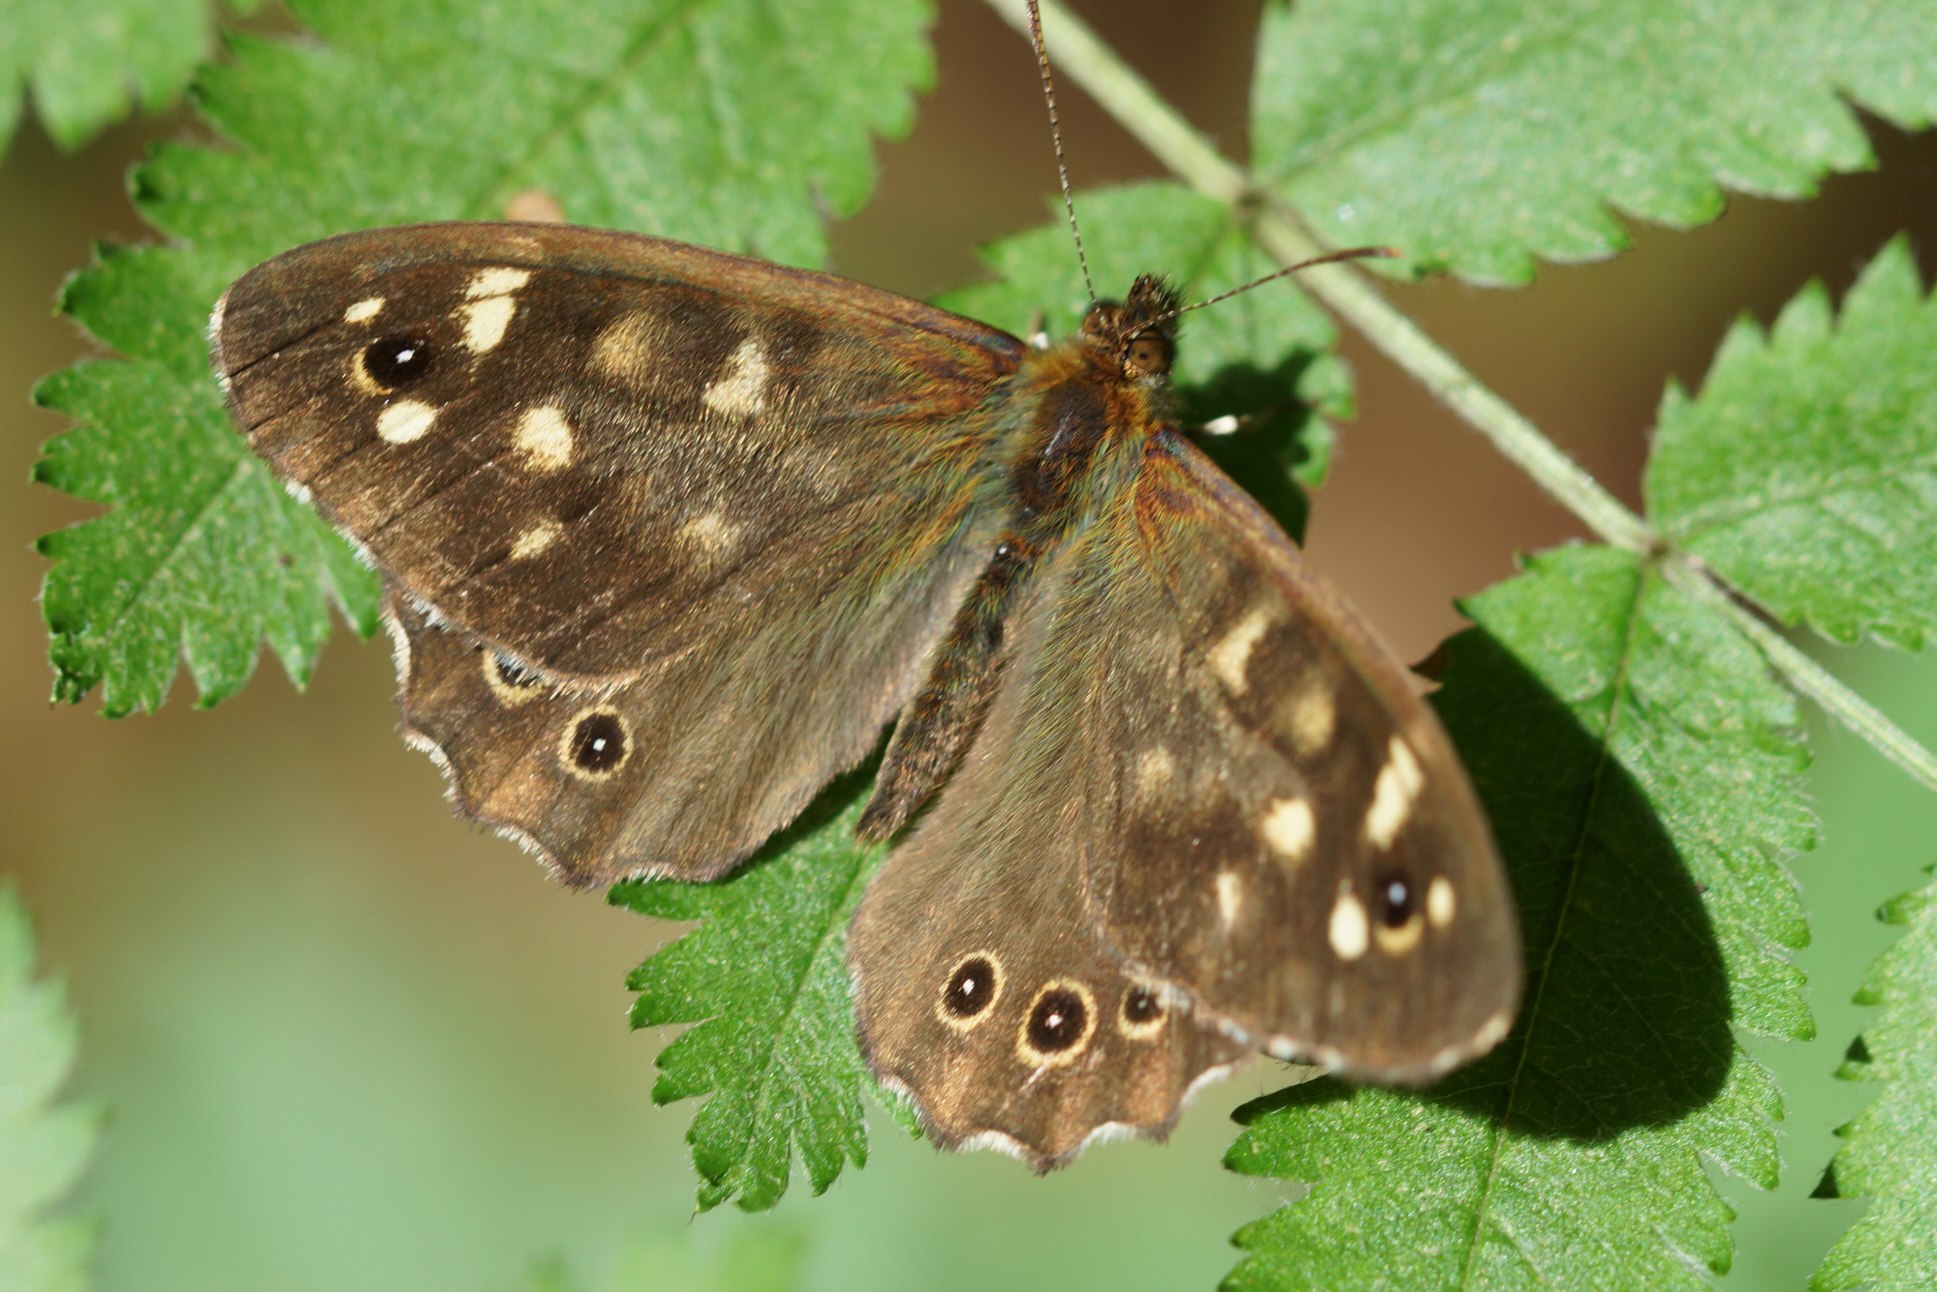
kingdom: Animalia
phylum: Arthropoda
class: Insecta
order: Lepidoptera
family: Nymphalidae
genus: Pararge
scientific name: Pararge aegeria
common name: Skovrandøje
